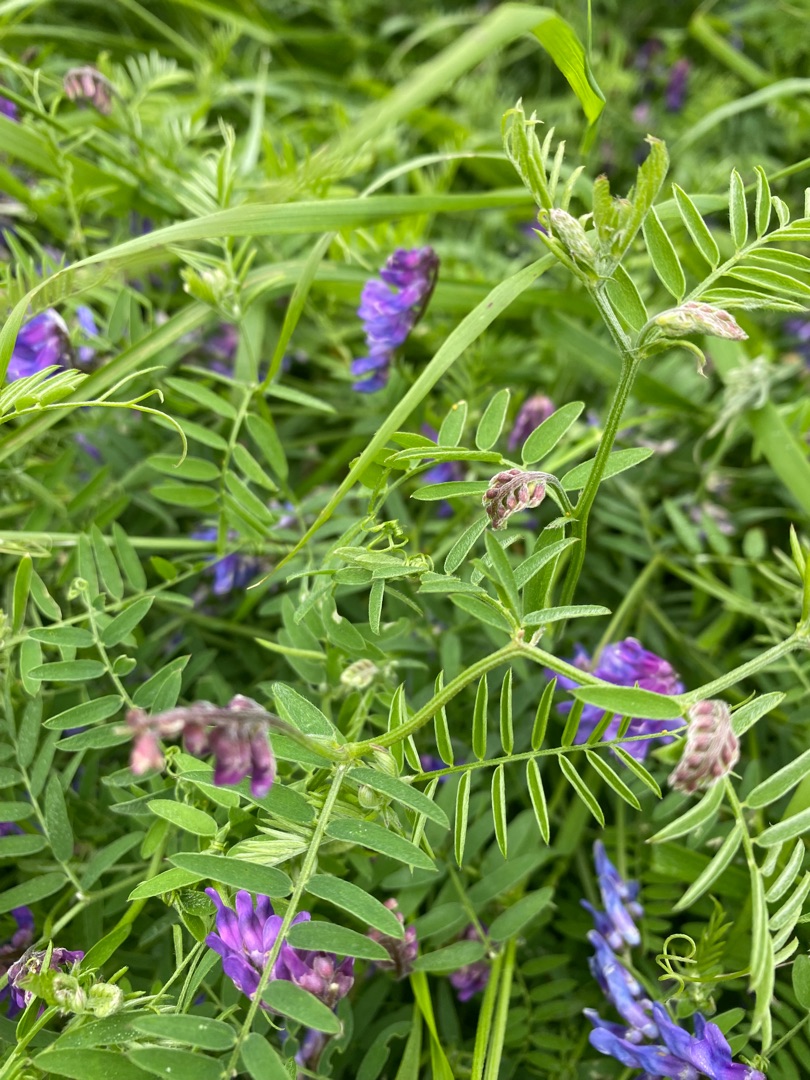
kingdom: Plantae
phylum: Tracheophyta
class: Magnoliopsida
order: Fabales
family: Fabaceae
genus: Vicia
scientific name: Vicia cracca
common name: Muse-vikke
